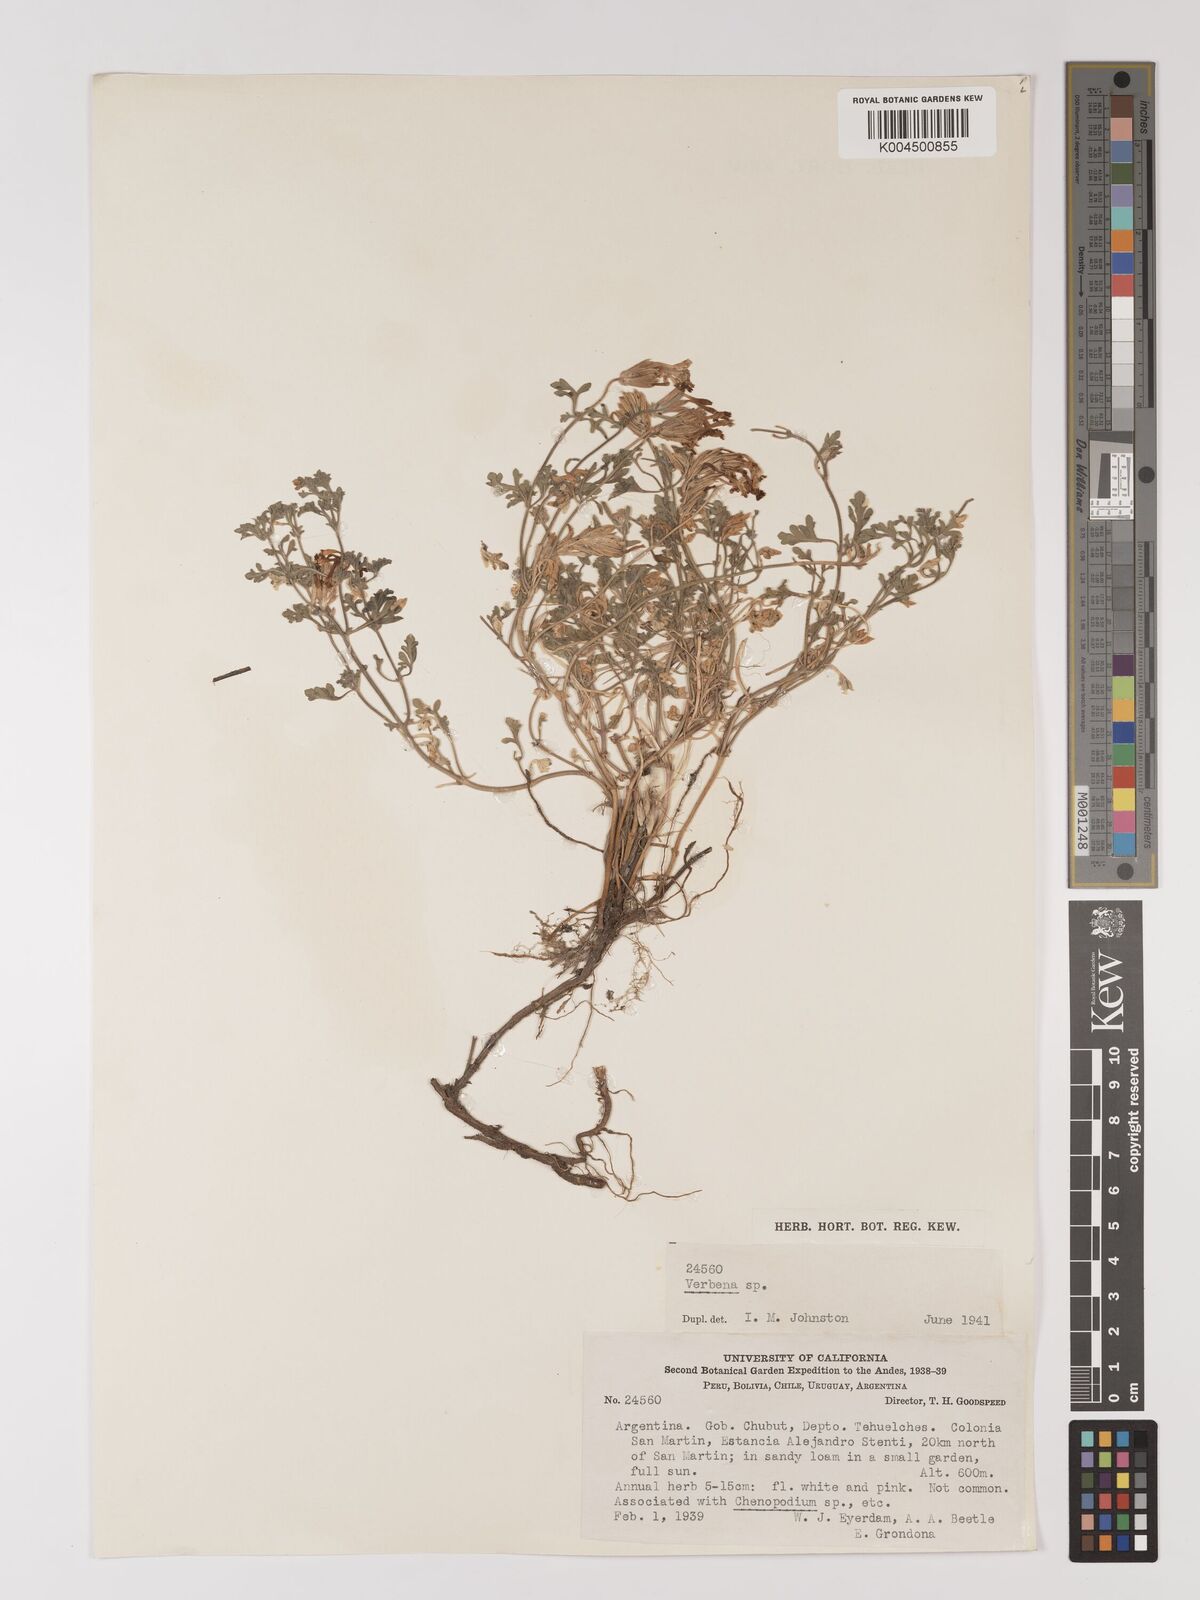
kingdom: Plantae
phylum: Tracheophyta
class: Magnoliopsida
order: Lamiales
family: Verbenaceae
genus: Verbena
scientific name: Verbena
